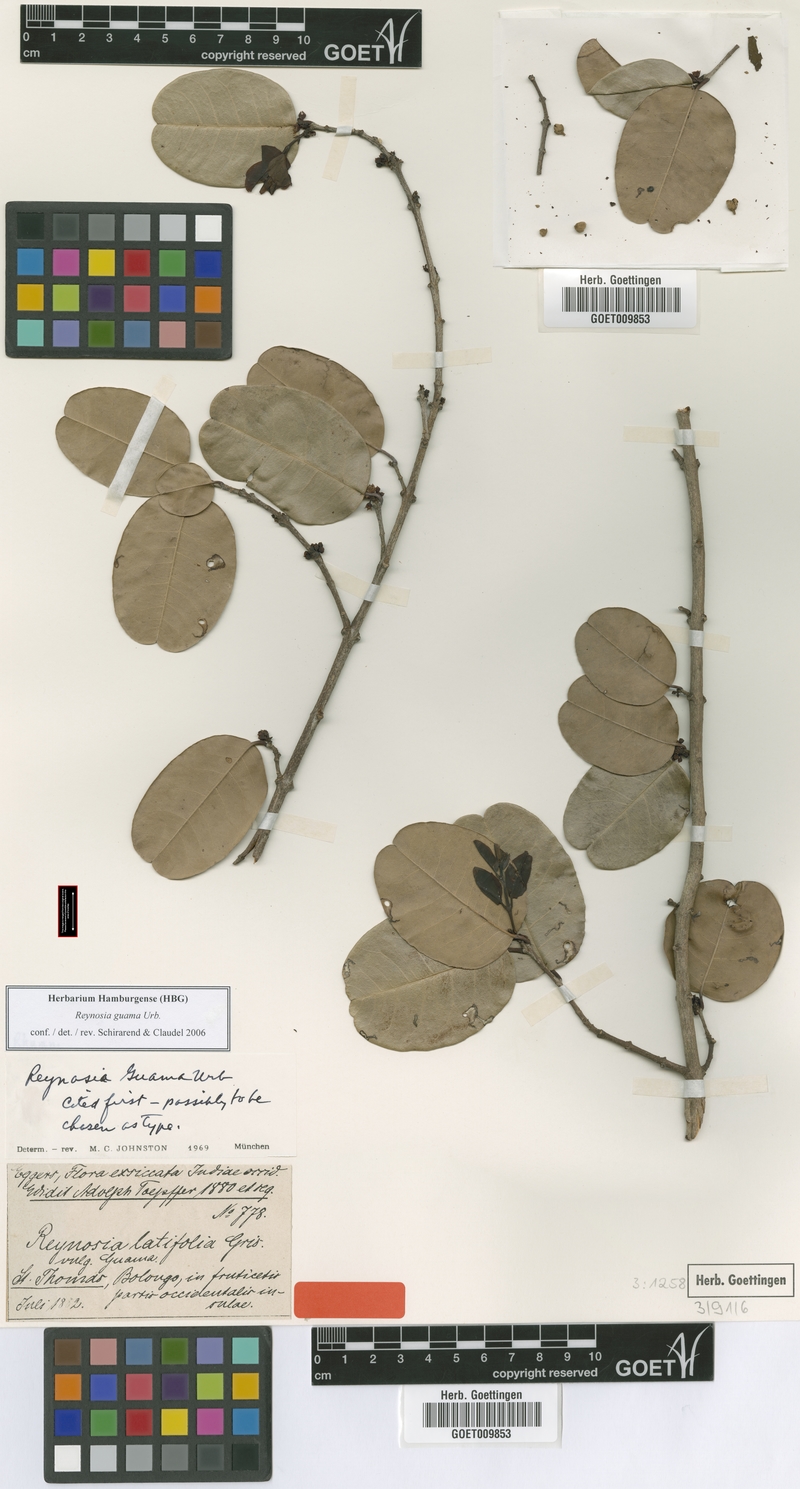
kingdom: Plantae
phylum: Tracheophyta
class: Magnoliopsida
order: Rosales
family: Rhamnaceae
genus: Reynosia
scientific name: Reynosia guama
